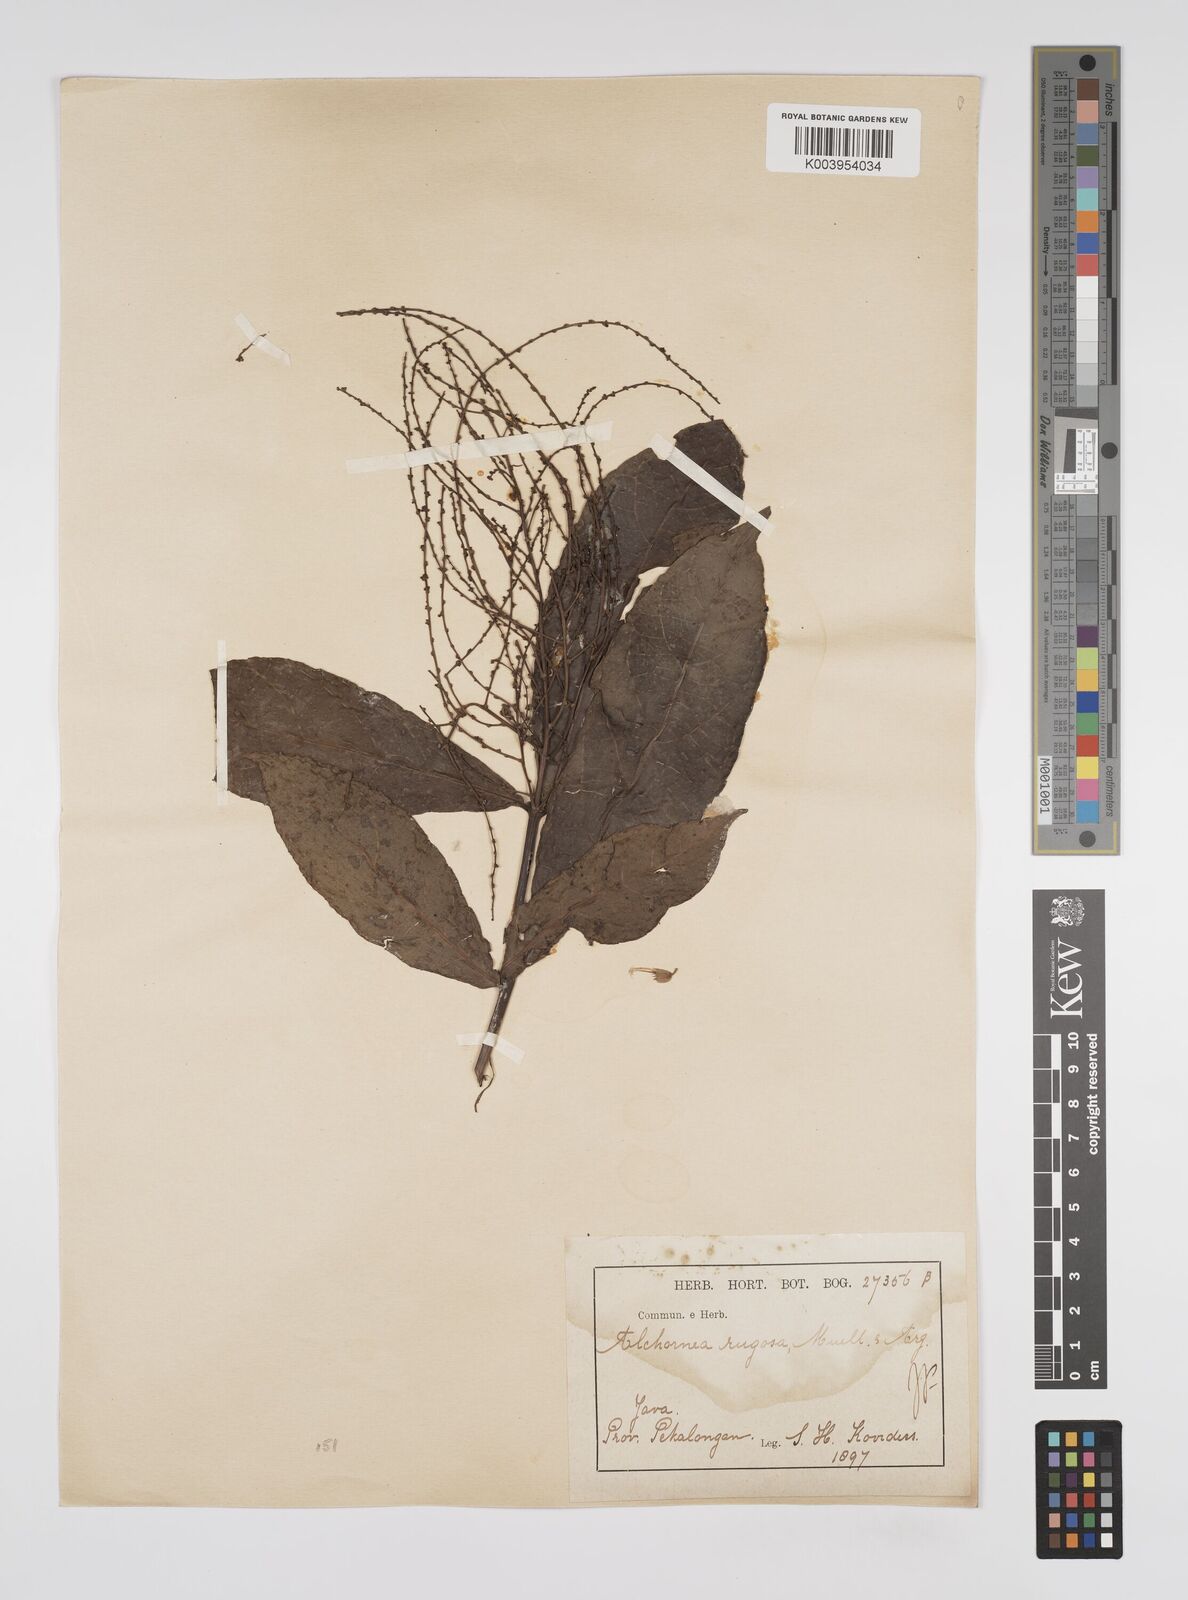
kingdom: Plantae
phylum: Tracheophyta
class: Magnoliopsida
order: Malpighiales
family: Euphorbiaceae
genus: Alchornea
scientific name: Alchornea rugosa
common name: Alchorntree
